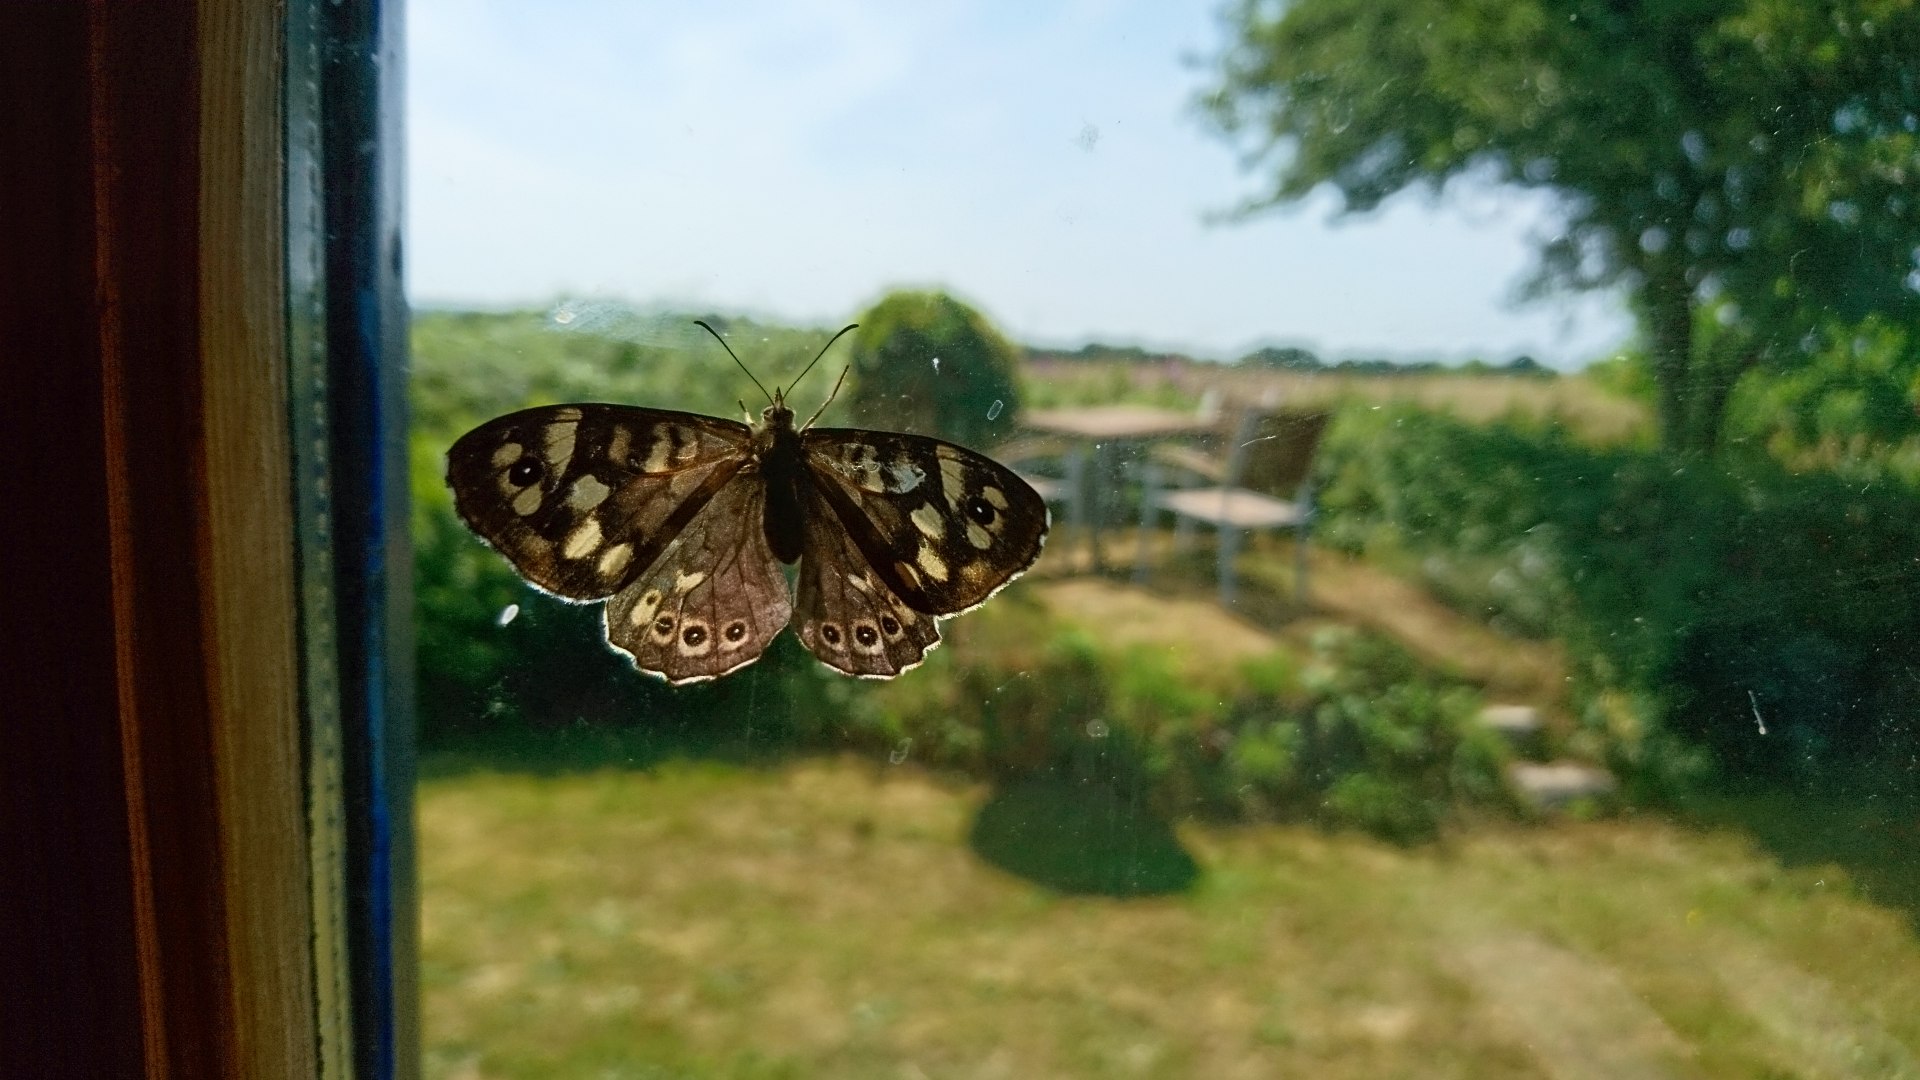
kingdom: Animalia
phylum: Arthropoda
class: Insecta
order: Lepidoptera
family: Nymphalidae
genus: Pararge
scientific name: Pararge aegeria
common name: Skovrandøje
